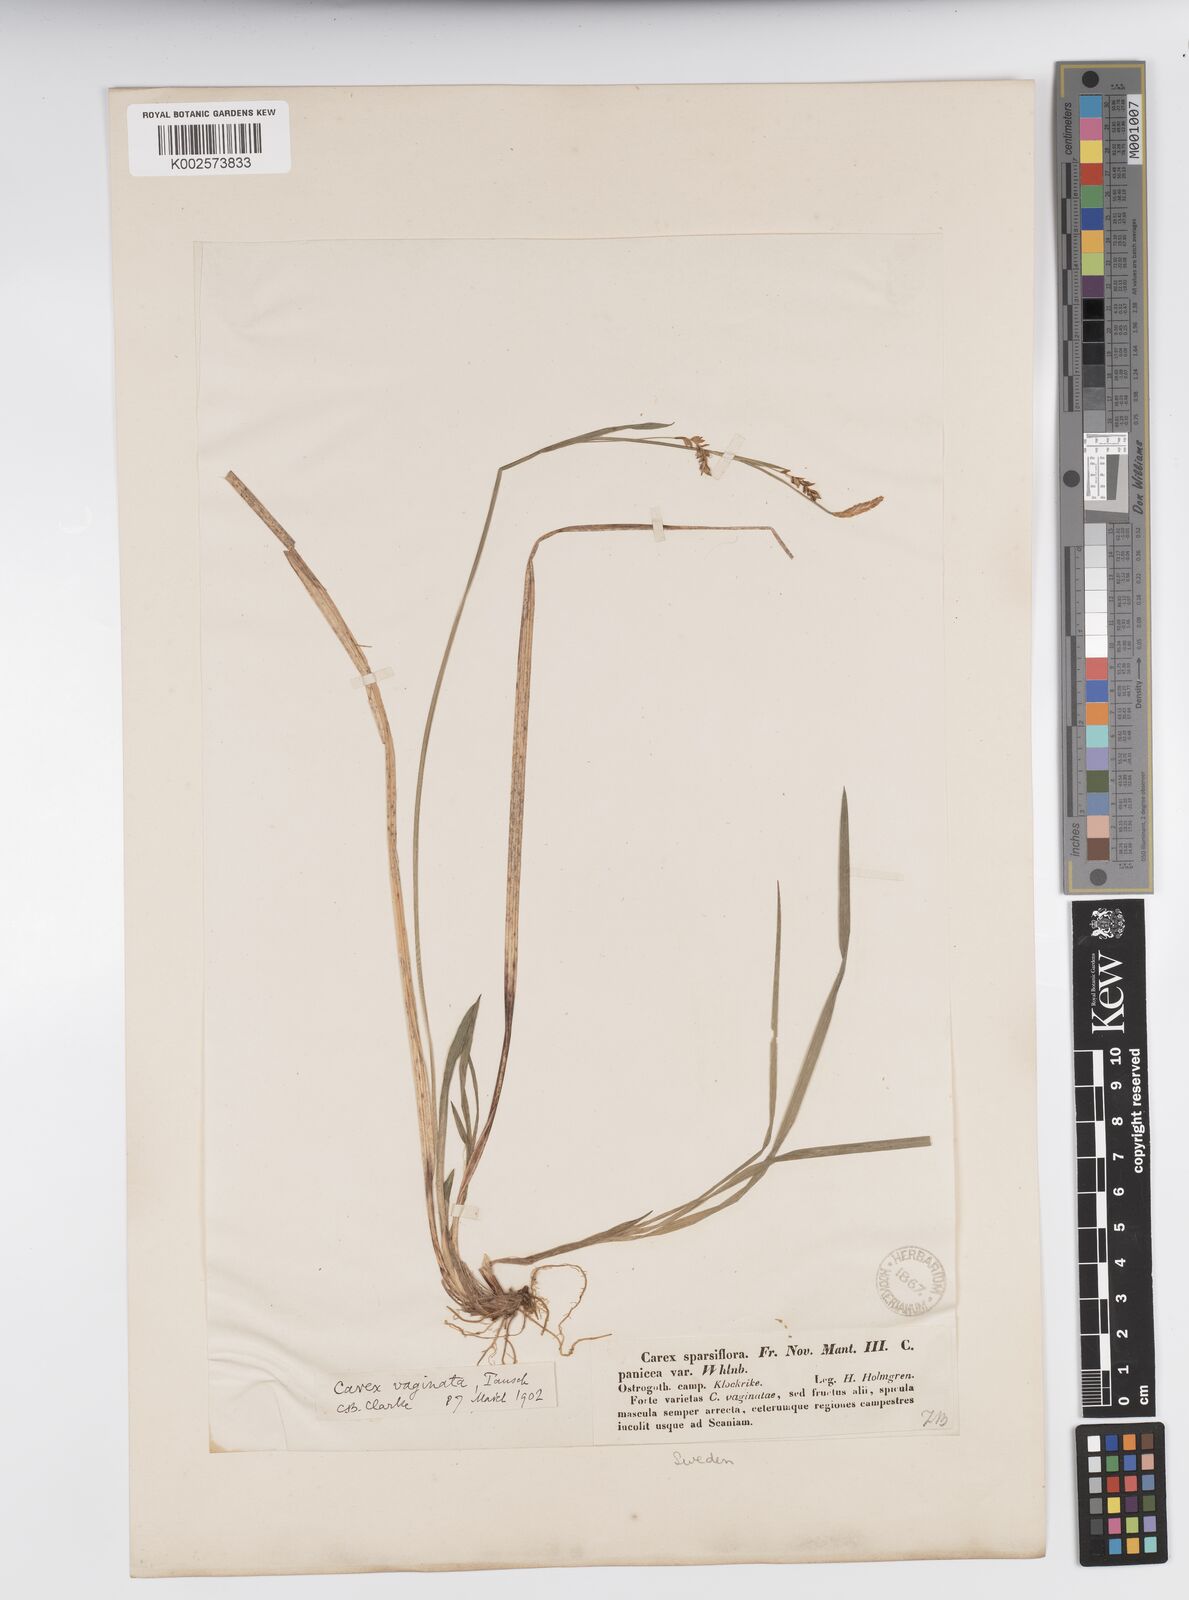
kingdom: Plantae
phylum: Tracheophyta
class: Liliopsida
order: Poales
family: Cyperaceae
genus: Carex
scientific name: Carex vaginata
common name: Sheathed sedge
